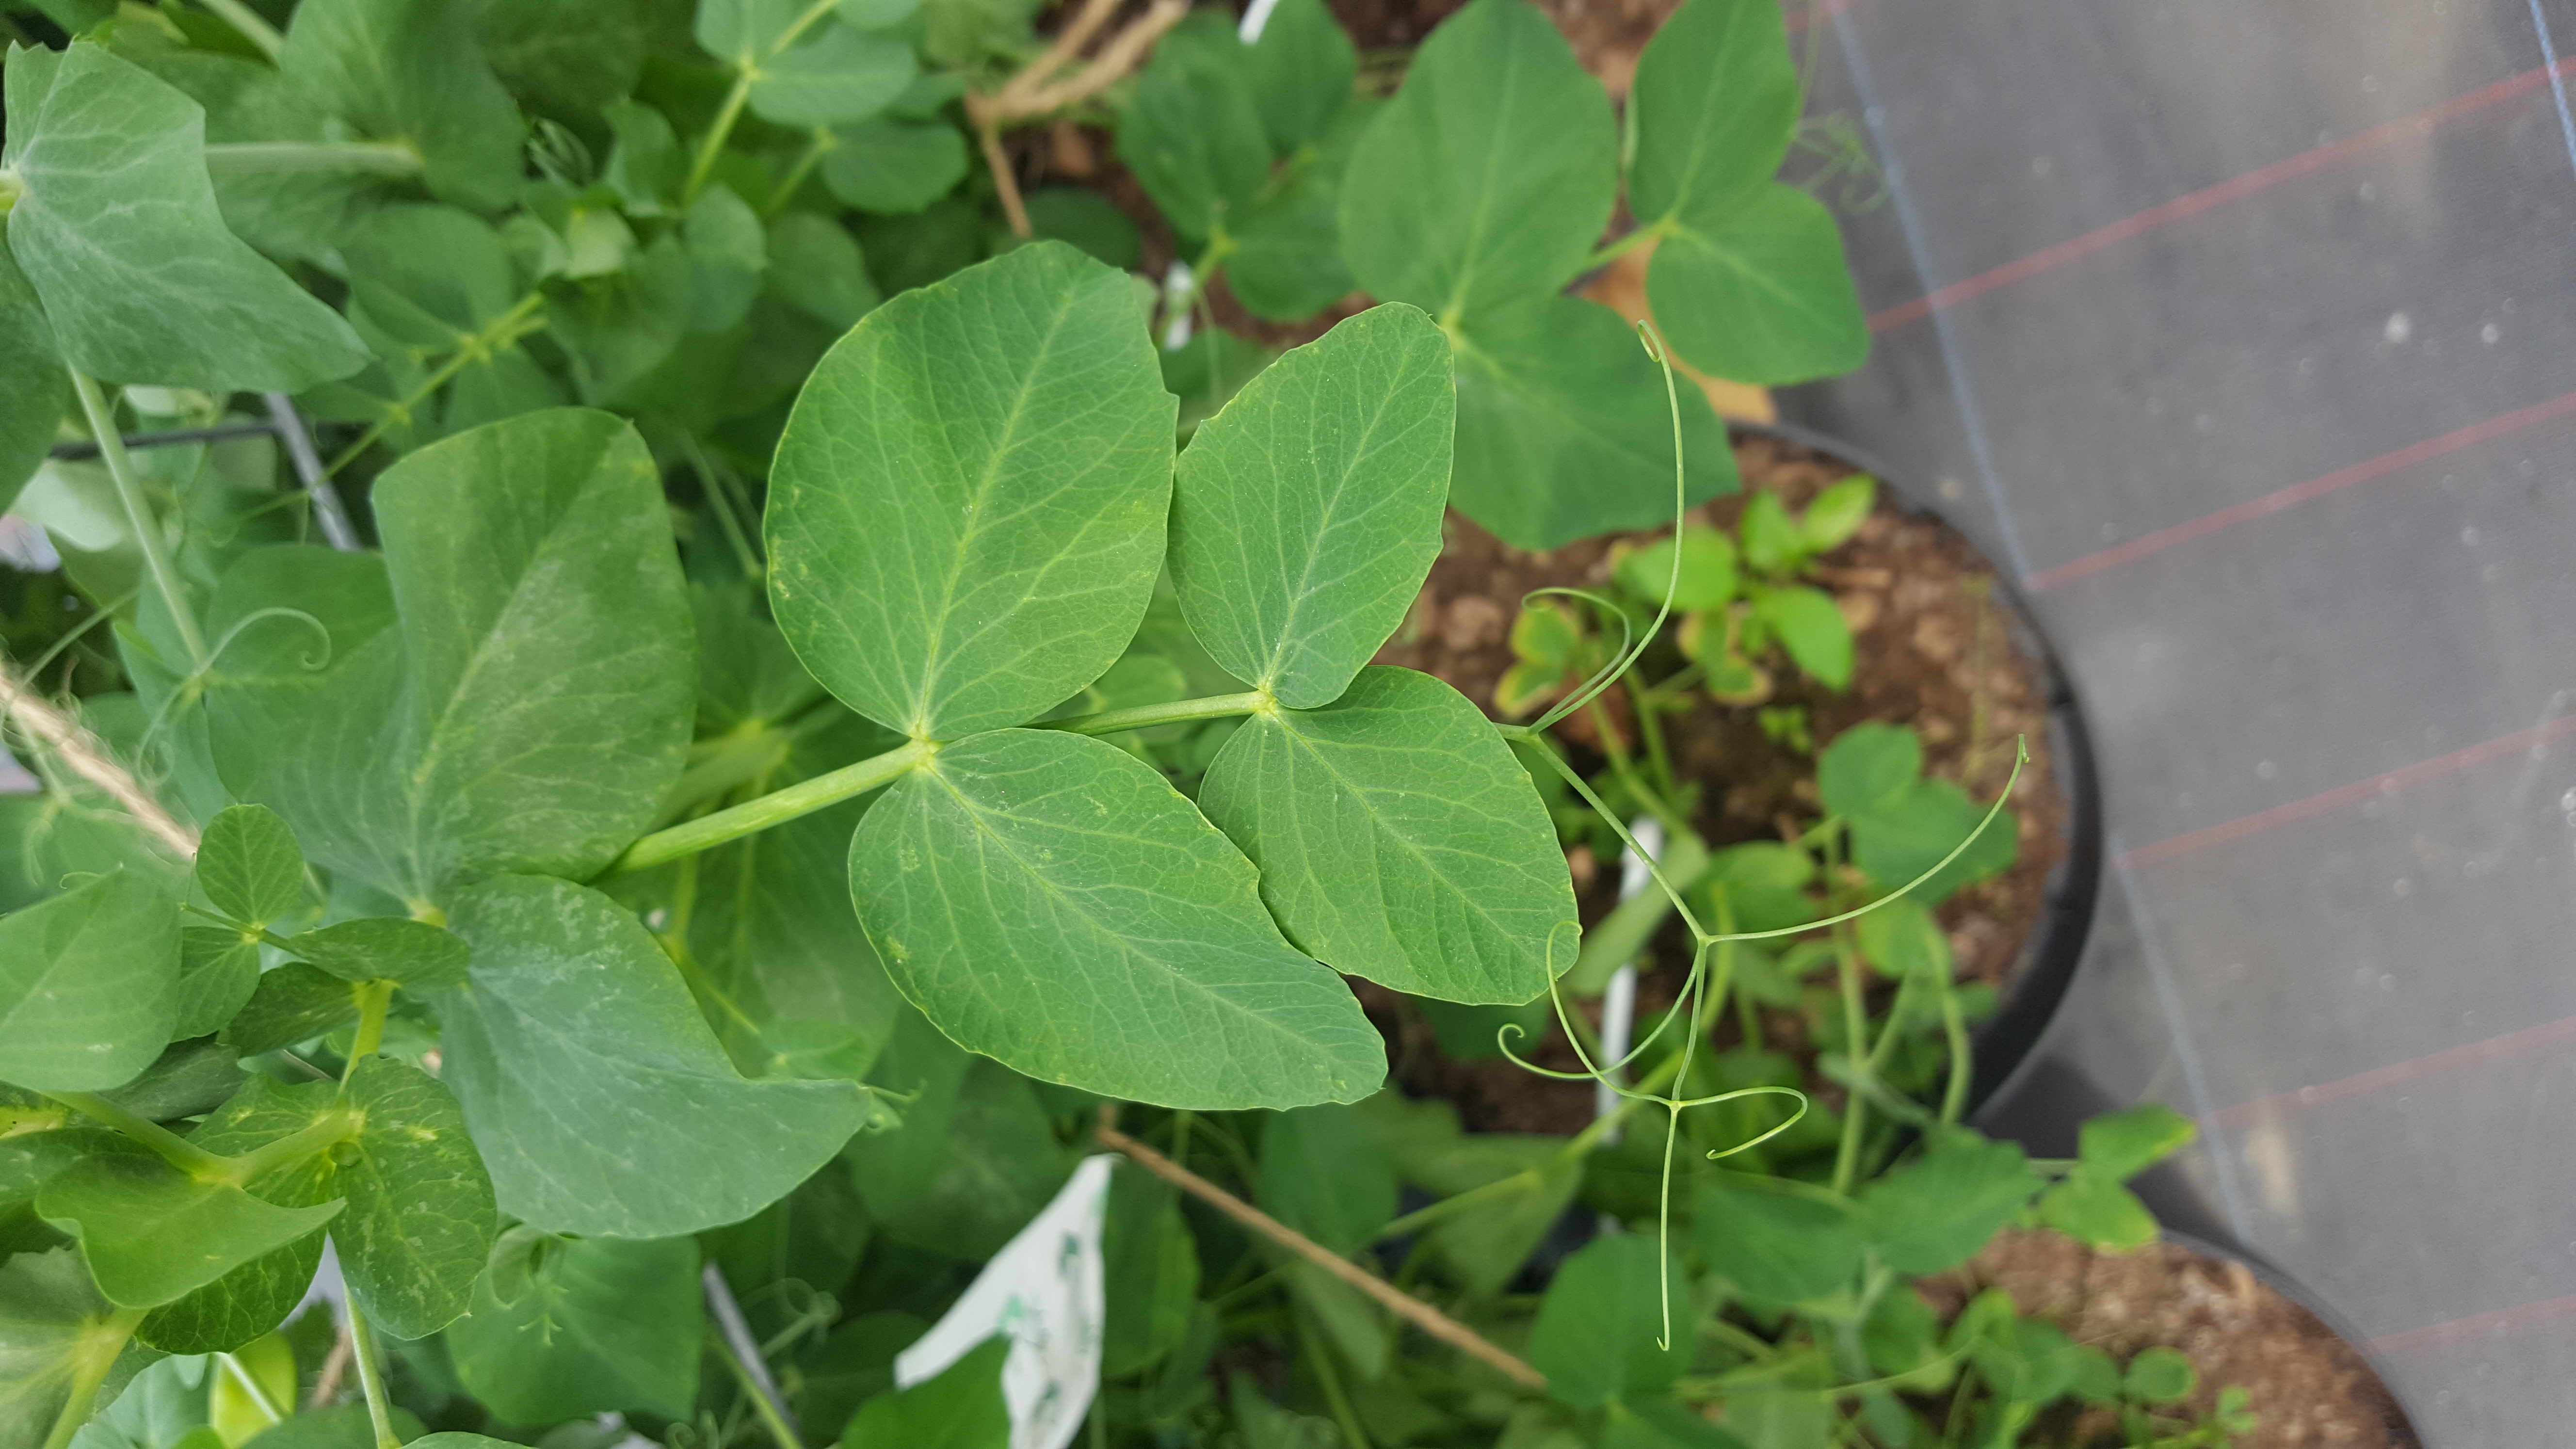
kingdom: Plantae
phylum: Tracheophyta
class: Magnoliopsida
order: Fabales
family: Fabaceae
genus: Lathyrus
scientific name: Lathyrus oleraceus
